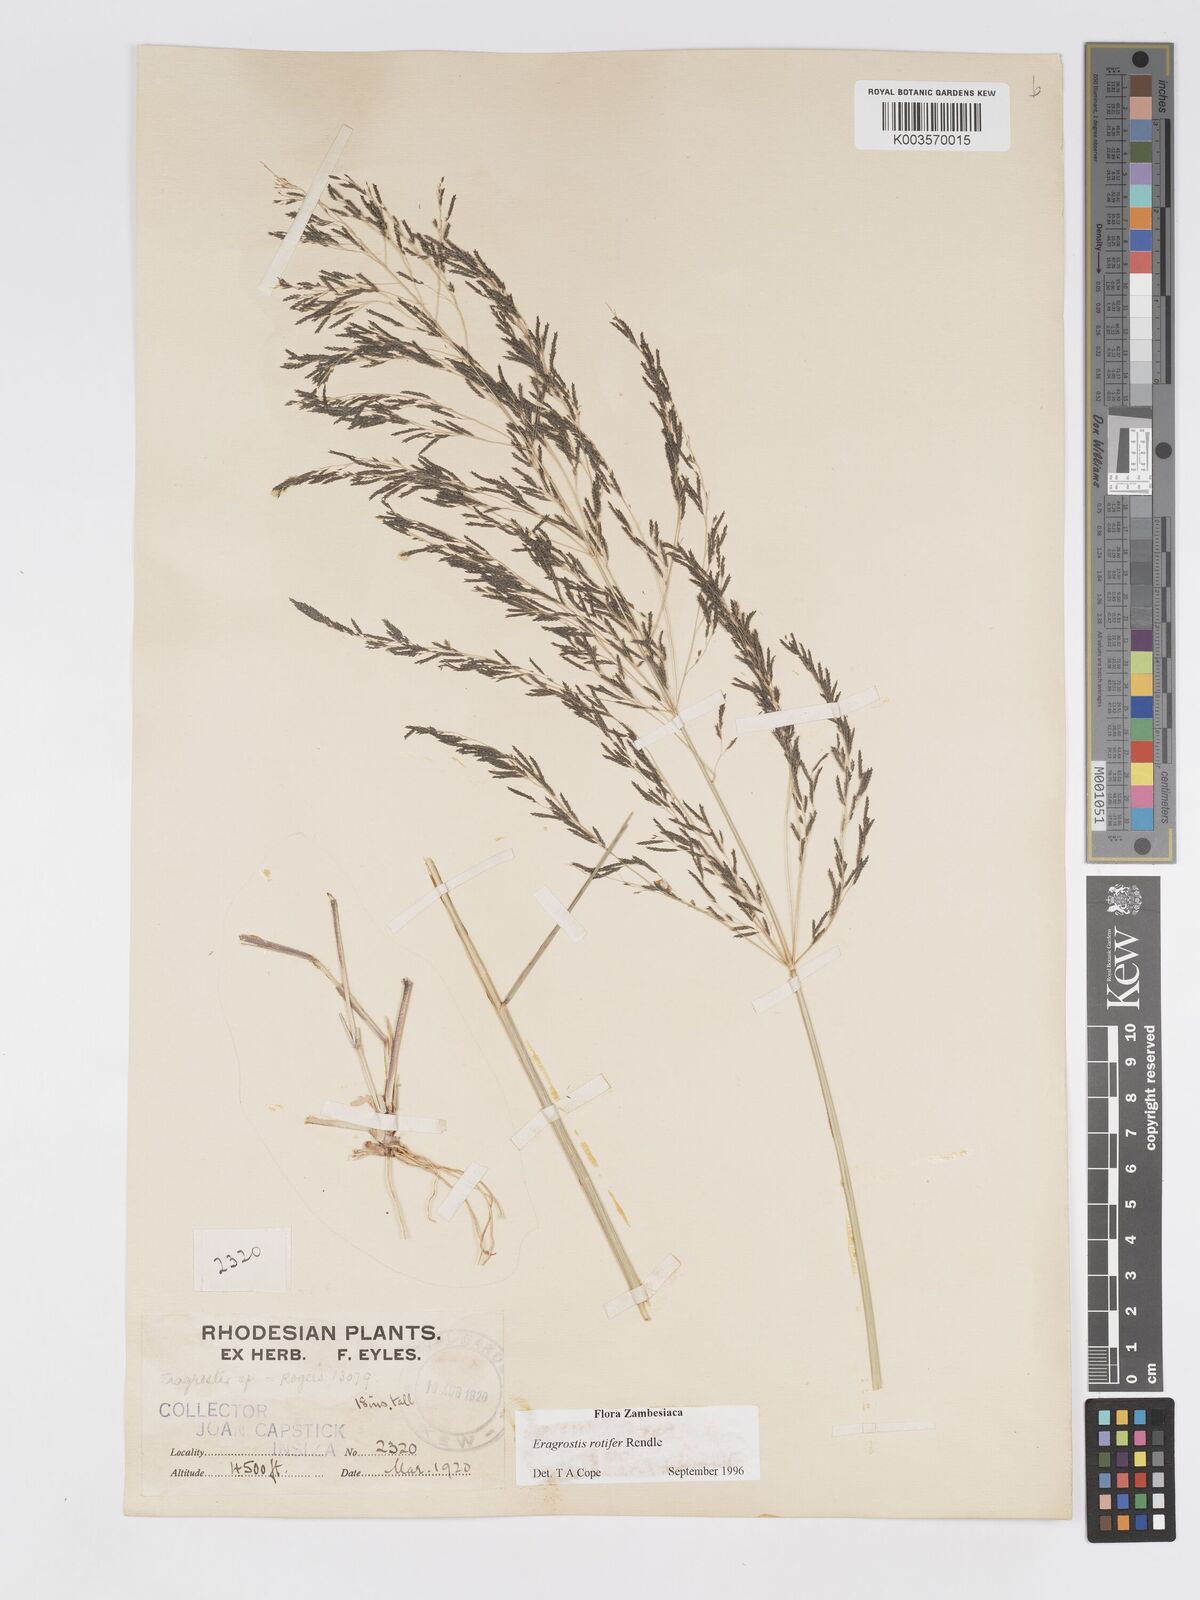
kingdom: Plantae
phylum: Tracheophyta
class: Liliopsida
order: Poales
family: Poaceae
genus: Eragrostis
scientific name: Eragrostis rotifer
